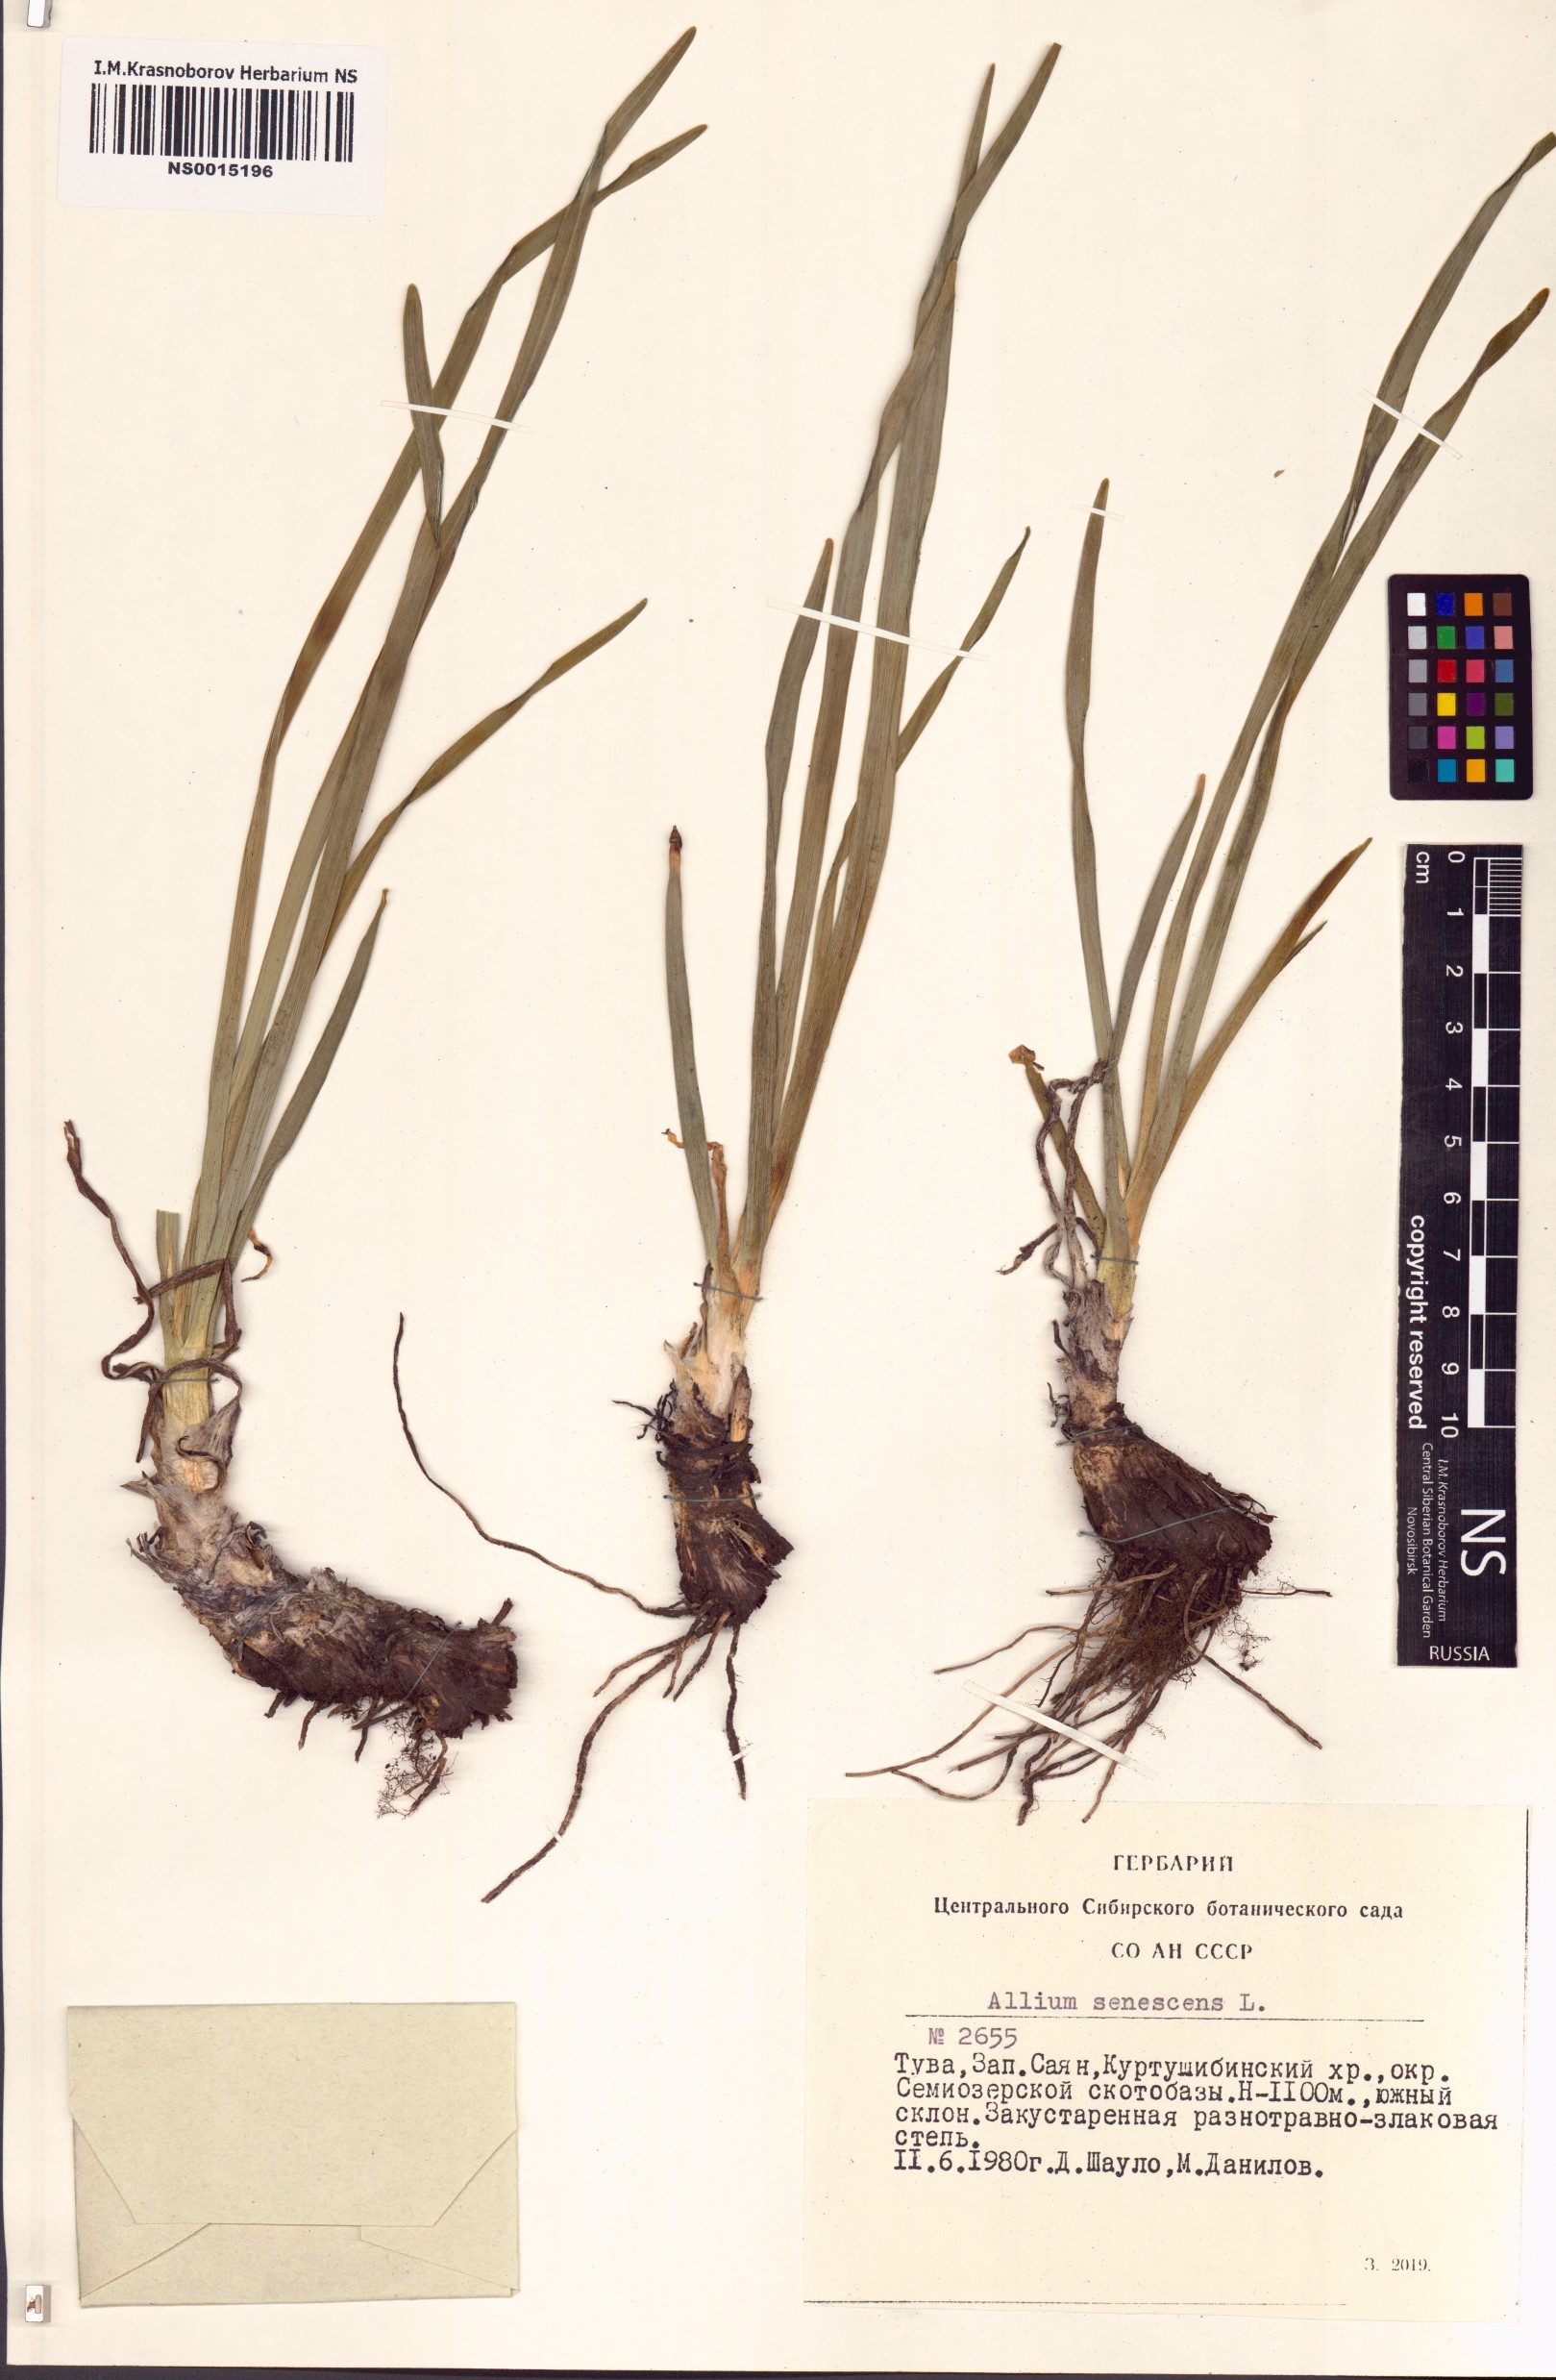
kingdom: Plantae
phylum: Tracheophyta
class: Liliopsida
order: Asparagales
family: Amaryllidaceae
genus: Allium
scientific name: Allium senescens
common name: German garlic
